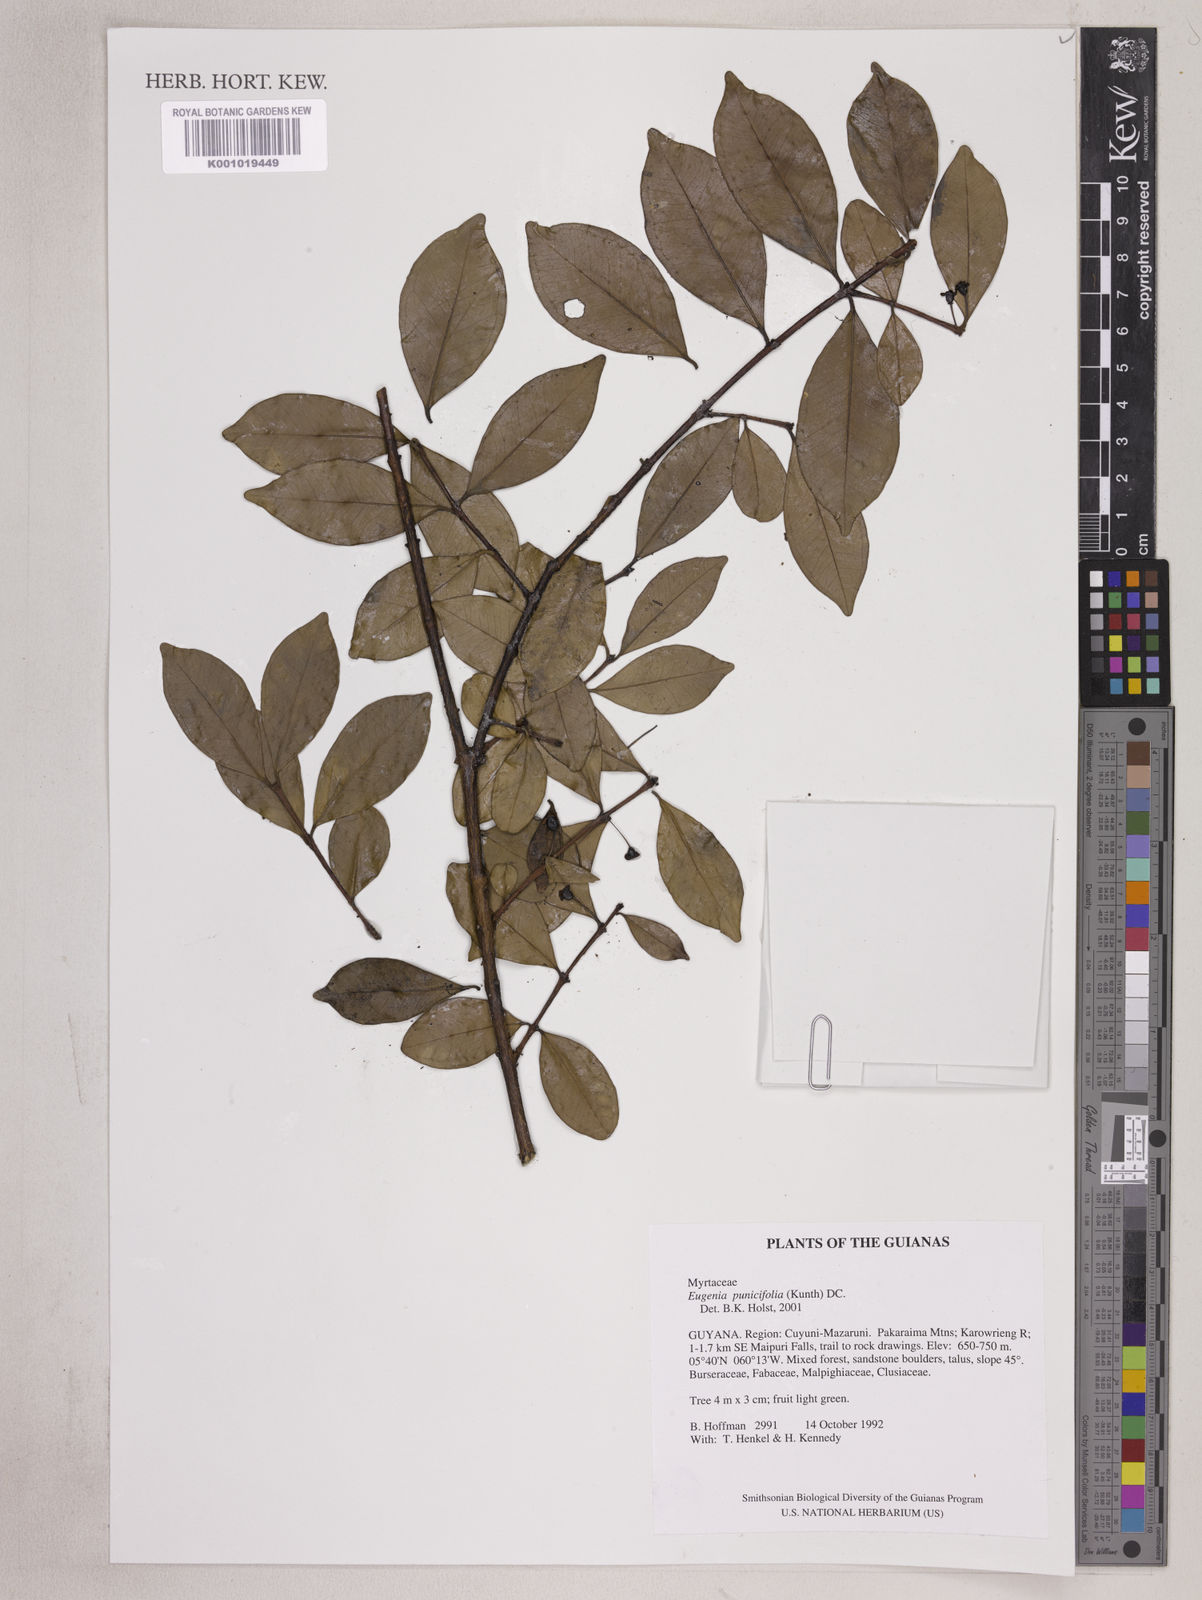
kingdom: Plantae
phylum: Tracheophyta
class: Magnoliopsida
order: Myrtales
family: Myrtaceae
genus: Eugenia
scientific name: Eugenia punicifolia
